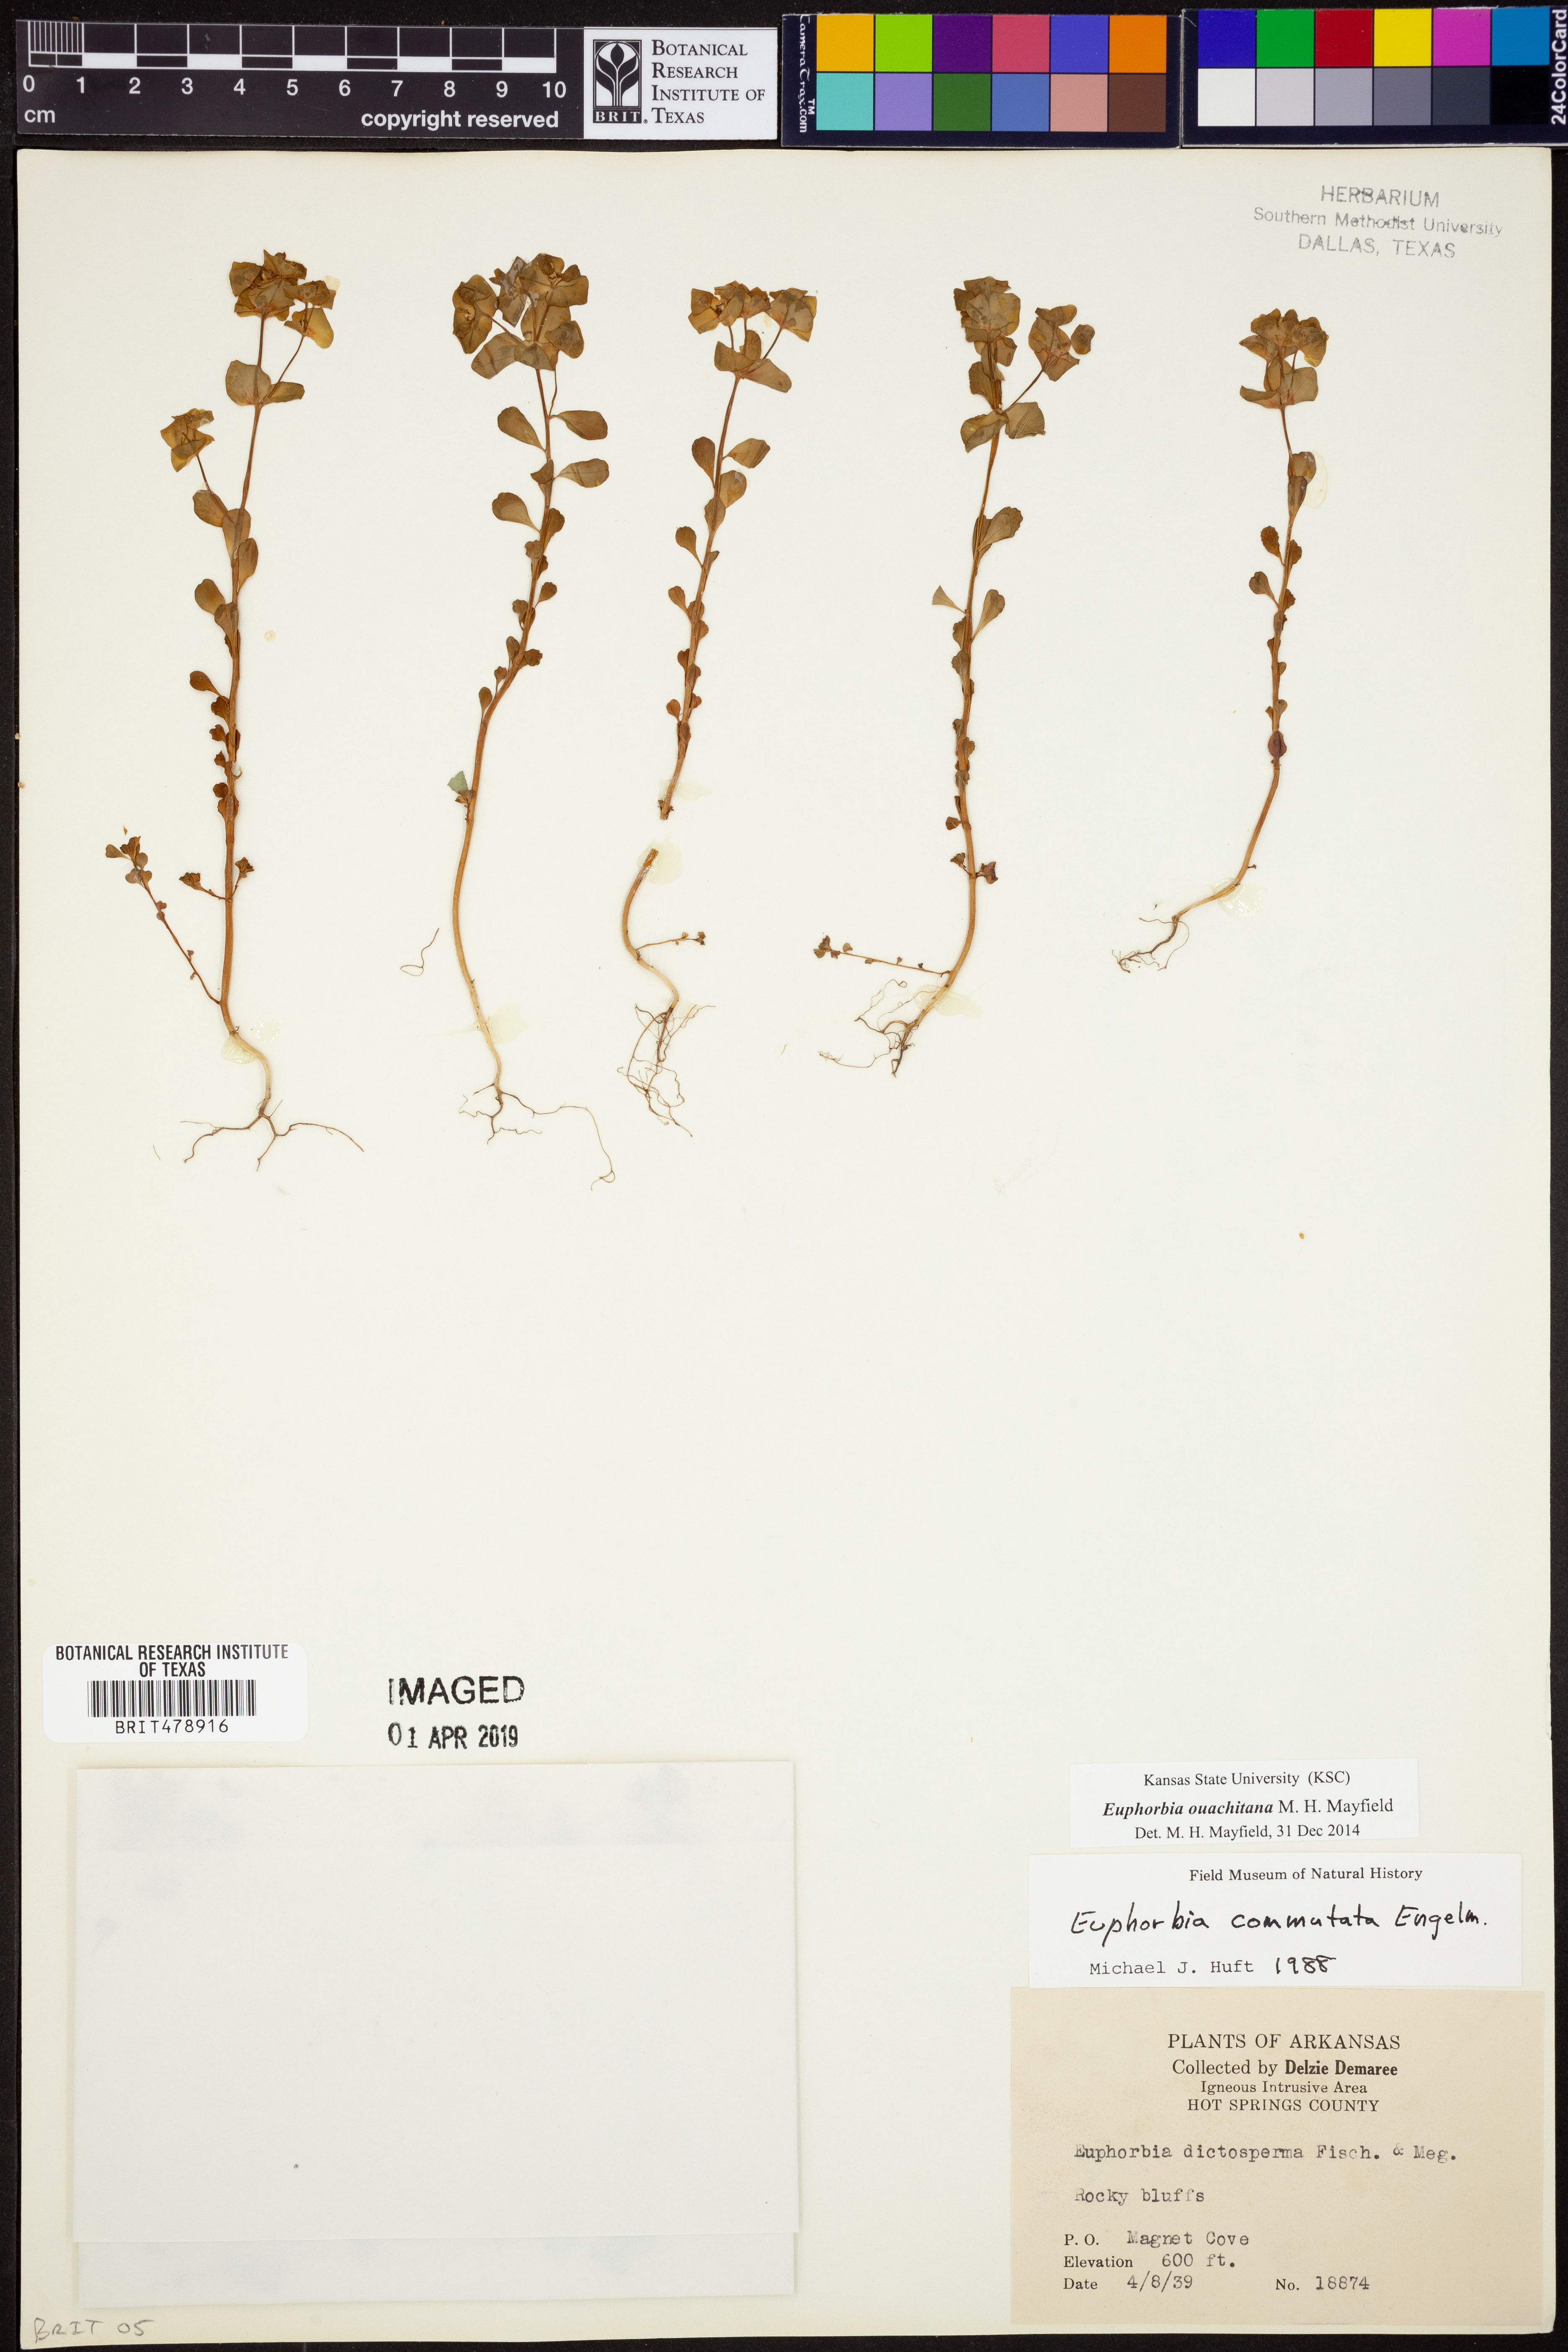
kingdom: Plantae
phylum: Tracheophyta
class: Magnoliopsida
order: Malpighiales
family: Euphorbiaceae
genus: Euphorbia
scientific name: Euphorbia ouachitana
